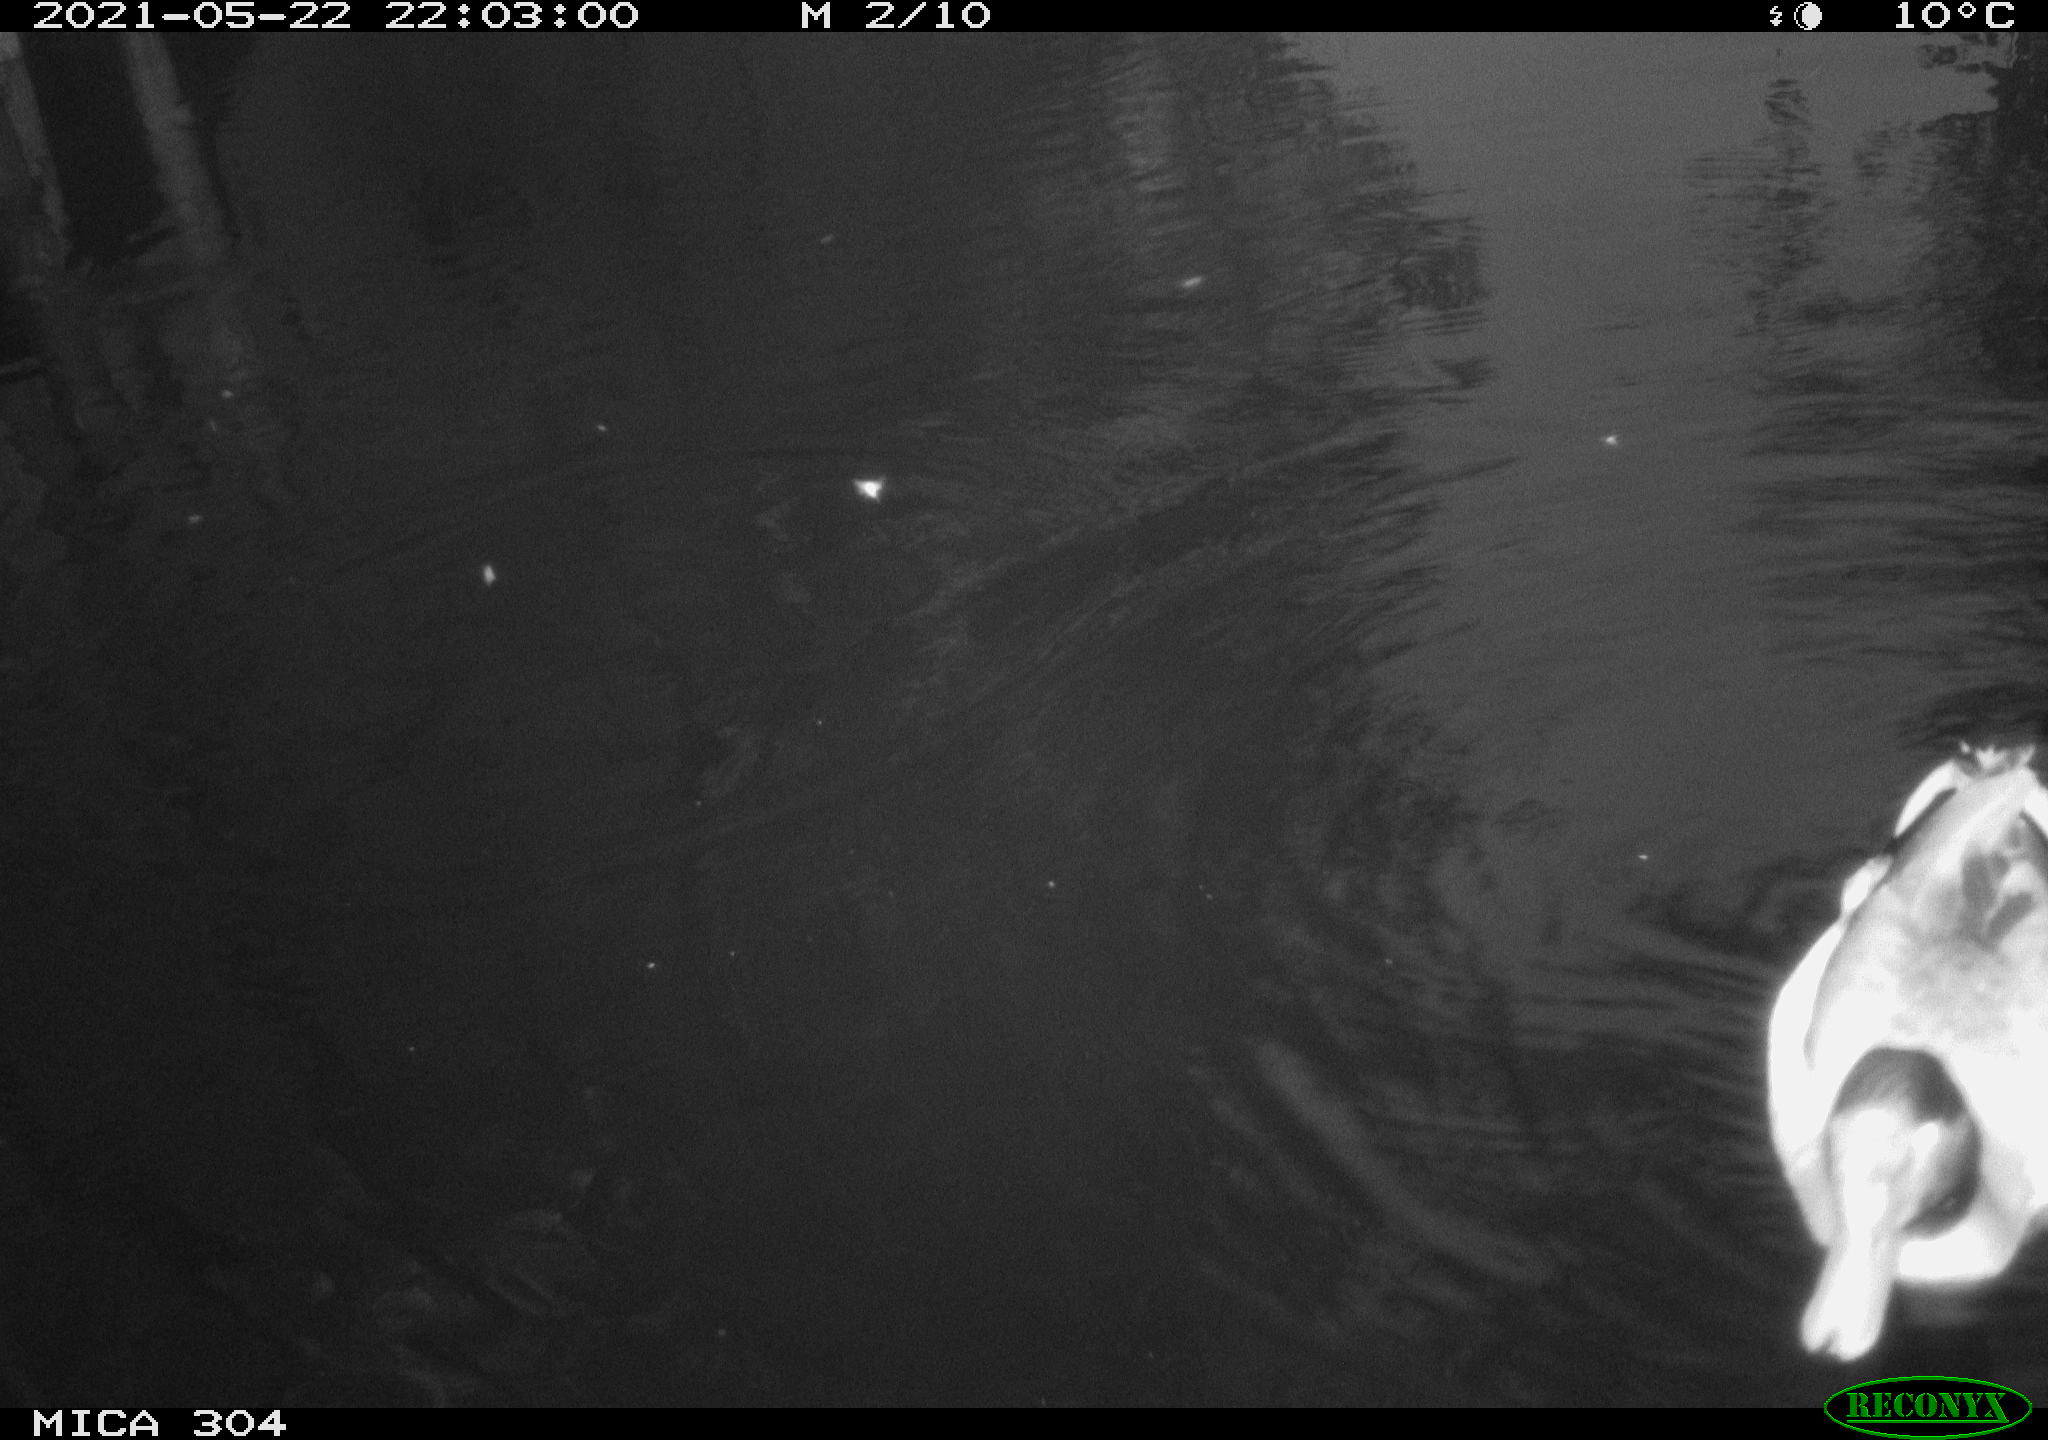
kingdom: Animalia
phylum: Chordata
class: Aves
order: Anseriformes
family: Anatidae
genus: Anas
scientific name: Anas platyrhynchos
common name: Mallard
